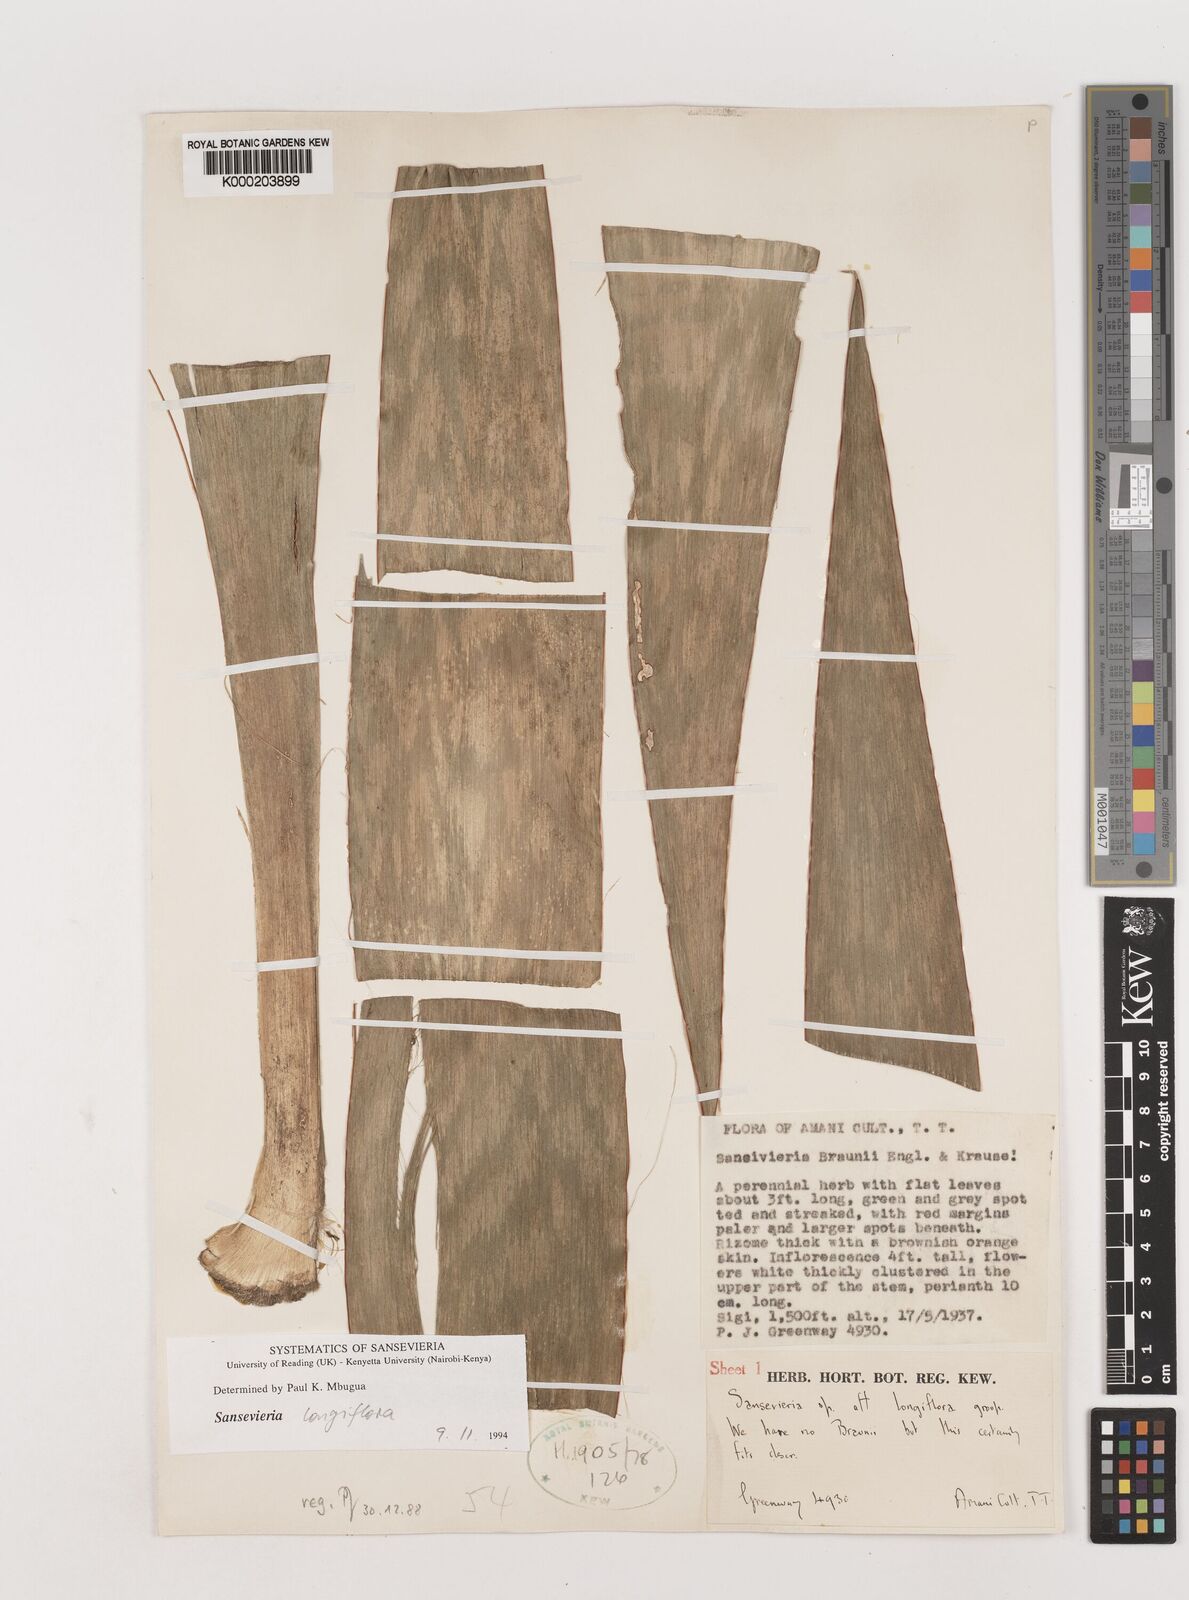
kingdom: Plantae
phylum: Tracheophyta
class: Liliopsida
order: Asparagales
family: Asparagaceae
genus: Dracaena
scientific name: Dracaena conspicua
